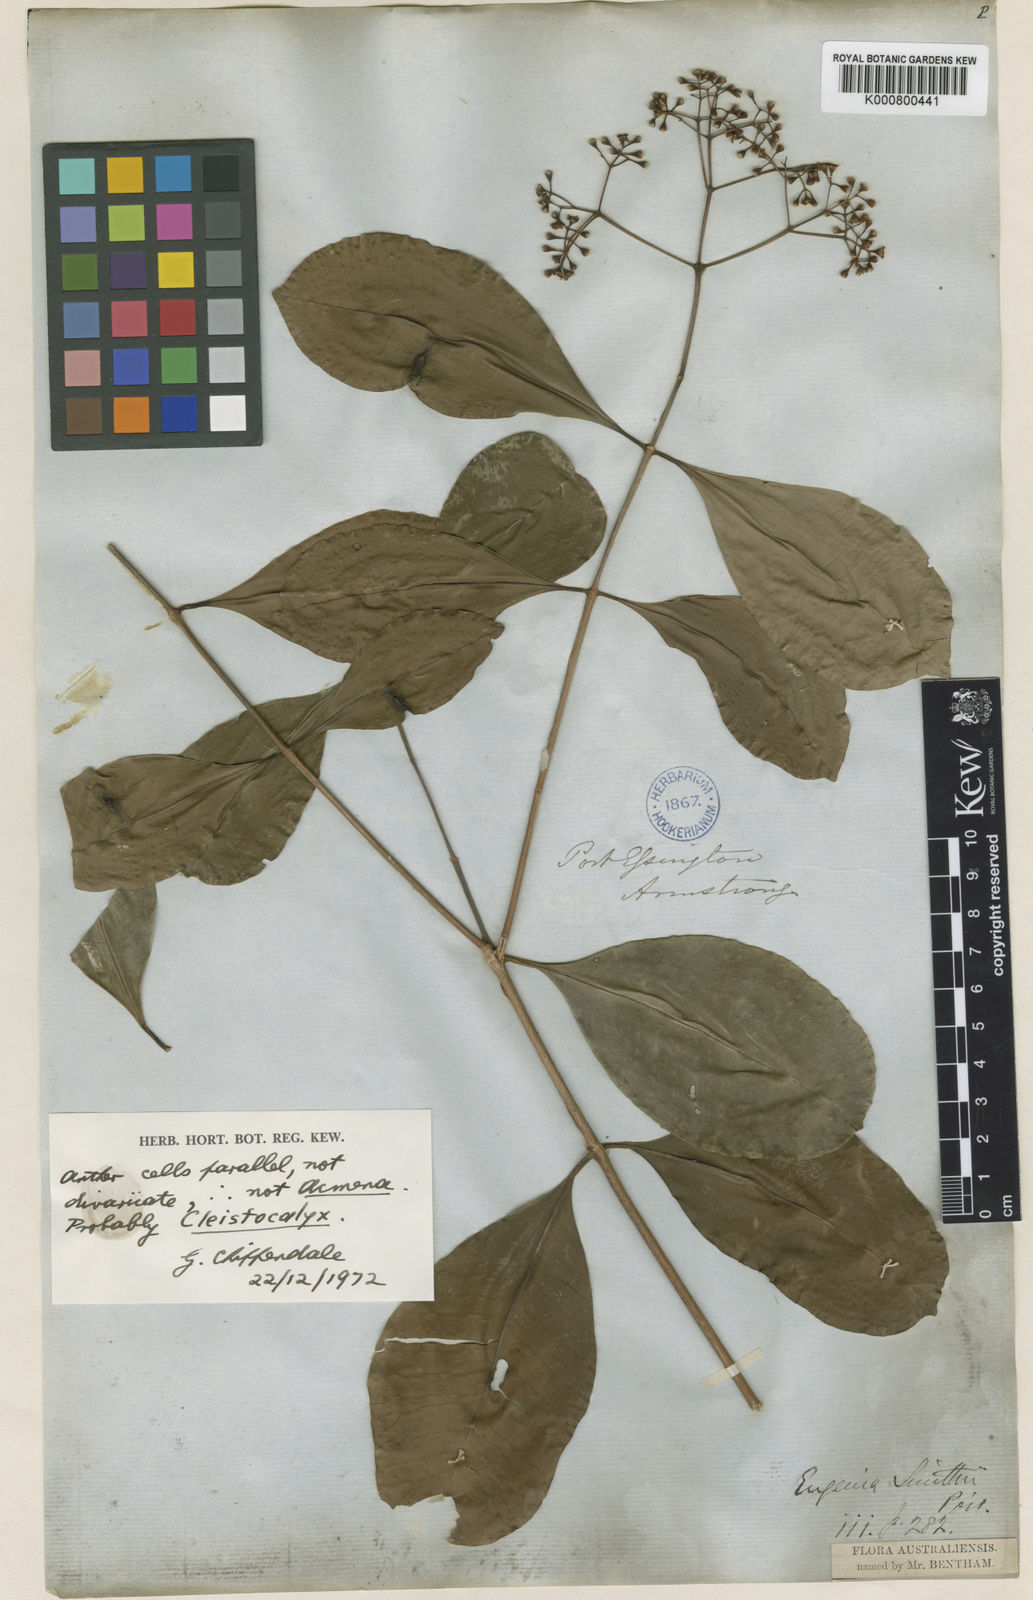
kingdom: Plantae
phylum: Tracheophyta
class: Magnoliopsida
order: Myrtales
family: Myrtaceae
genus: Syzygium
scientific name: Syzygium minutuliflorum
